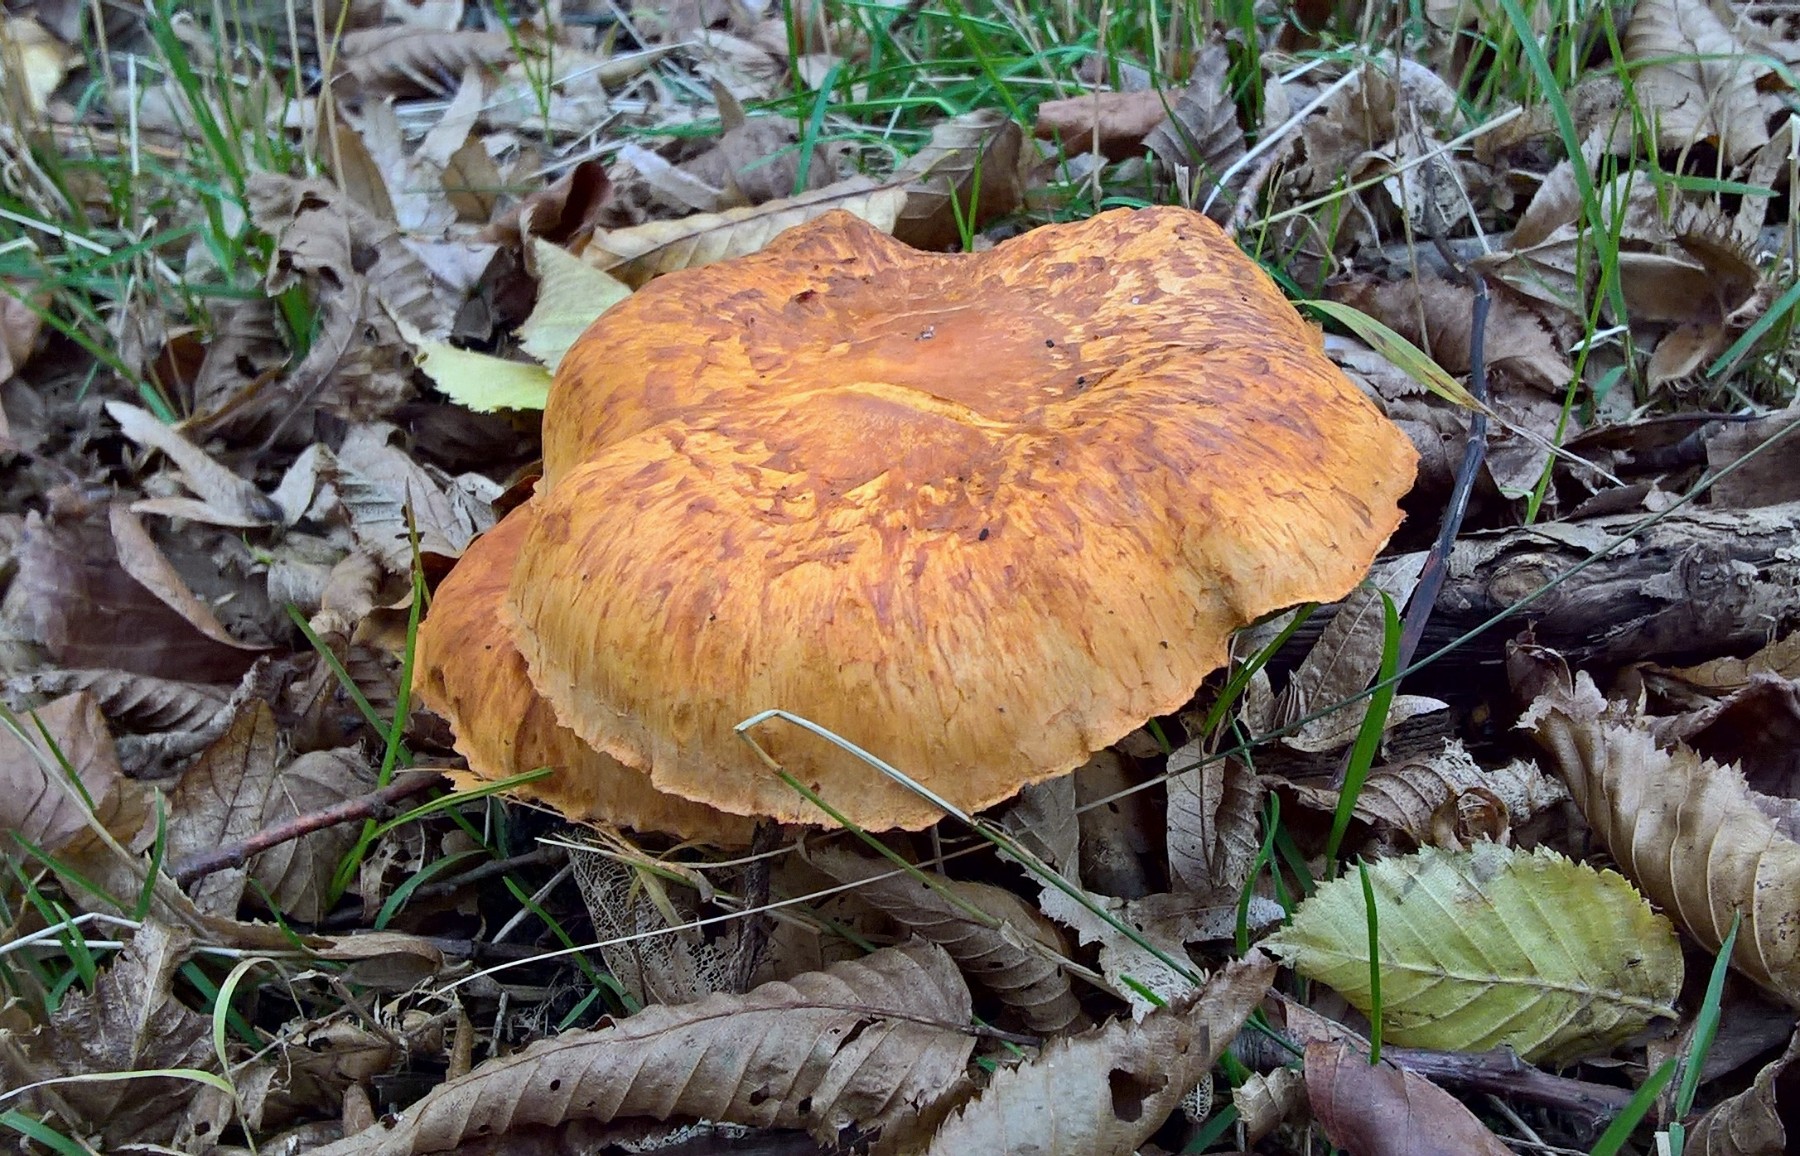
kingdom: Fungi
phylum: Basidiomycota
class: Agaricomycetes
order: Agaricales
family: Hymenogastraceae
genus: Gymnopilus
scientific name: Gymnopilus spectabilis
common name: fibret flammehat
